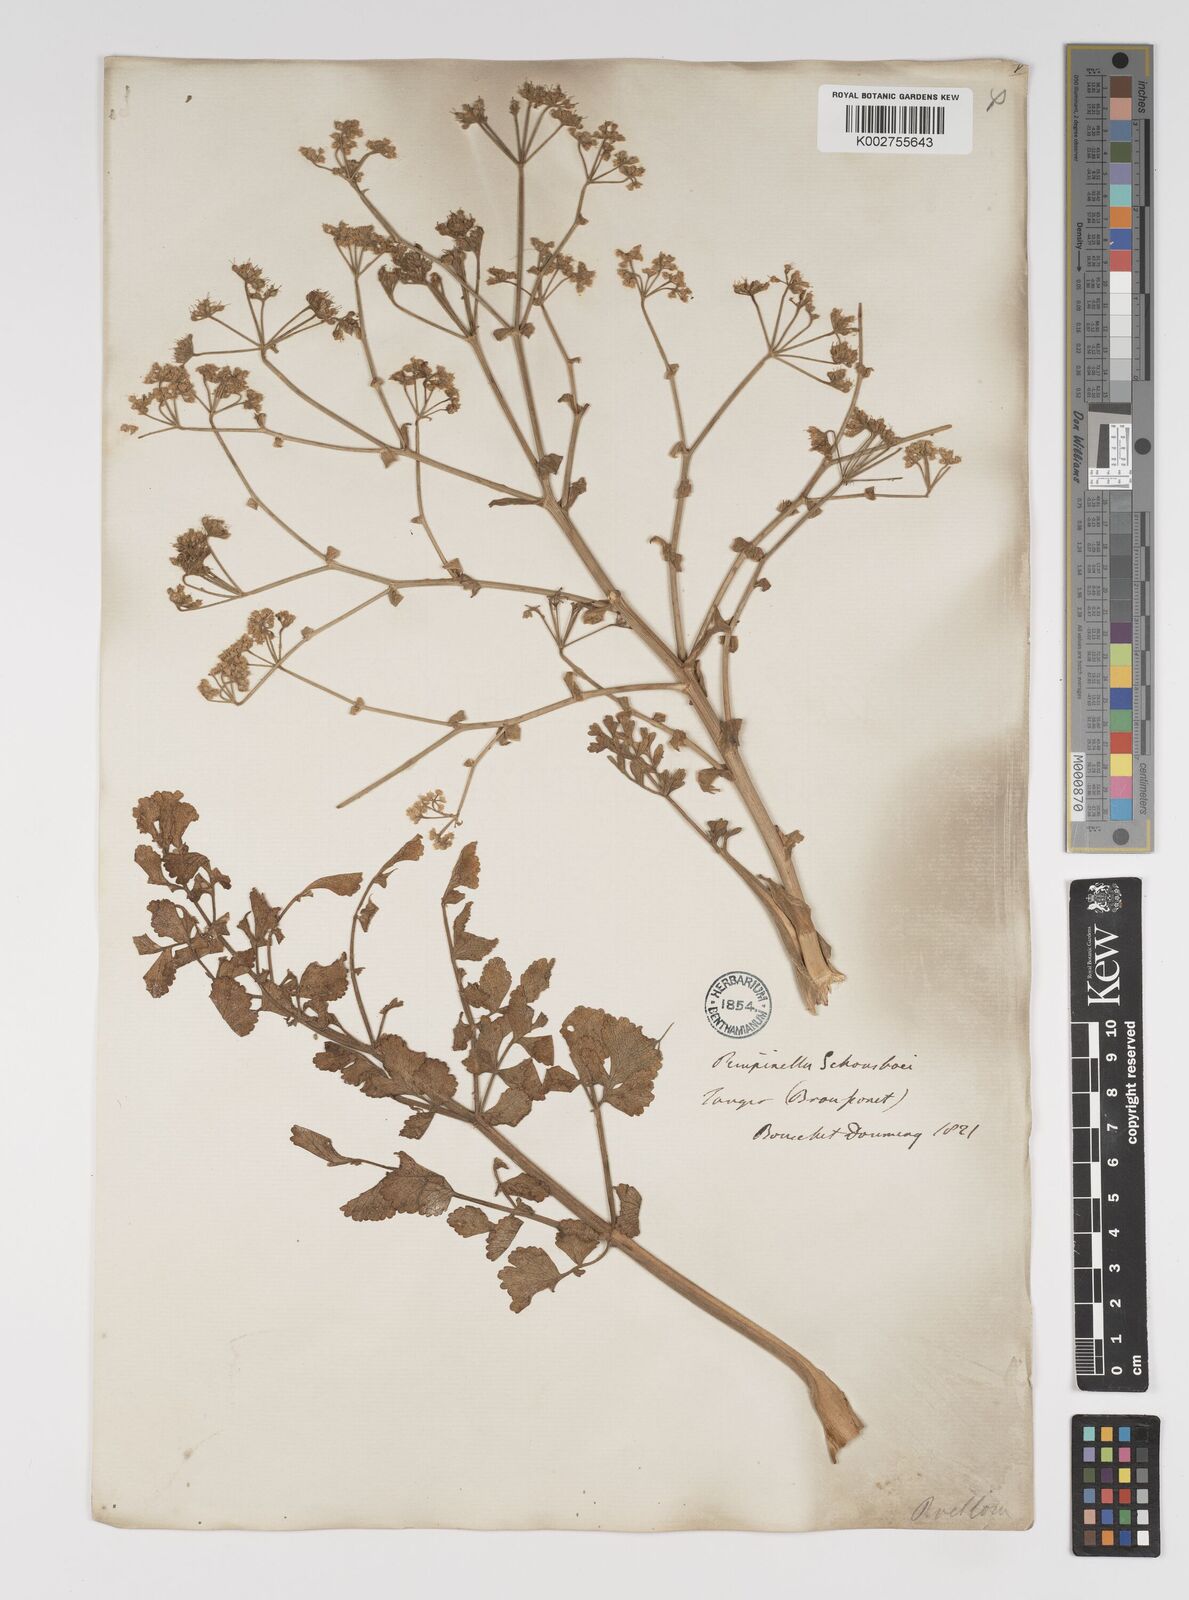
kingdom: Plantae
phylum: Tracheophyta
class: Magnoliopsida
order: Apiales
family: Apiaceae
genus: Pimpinella
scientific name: Pimpinella villosa
